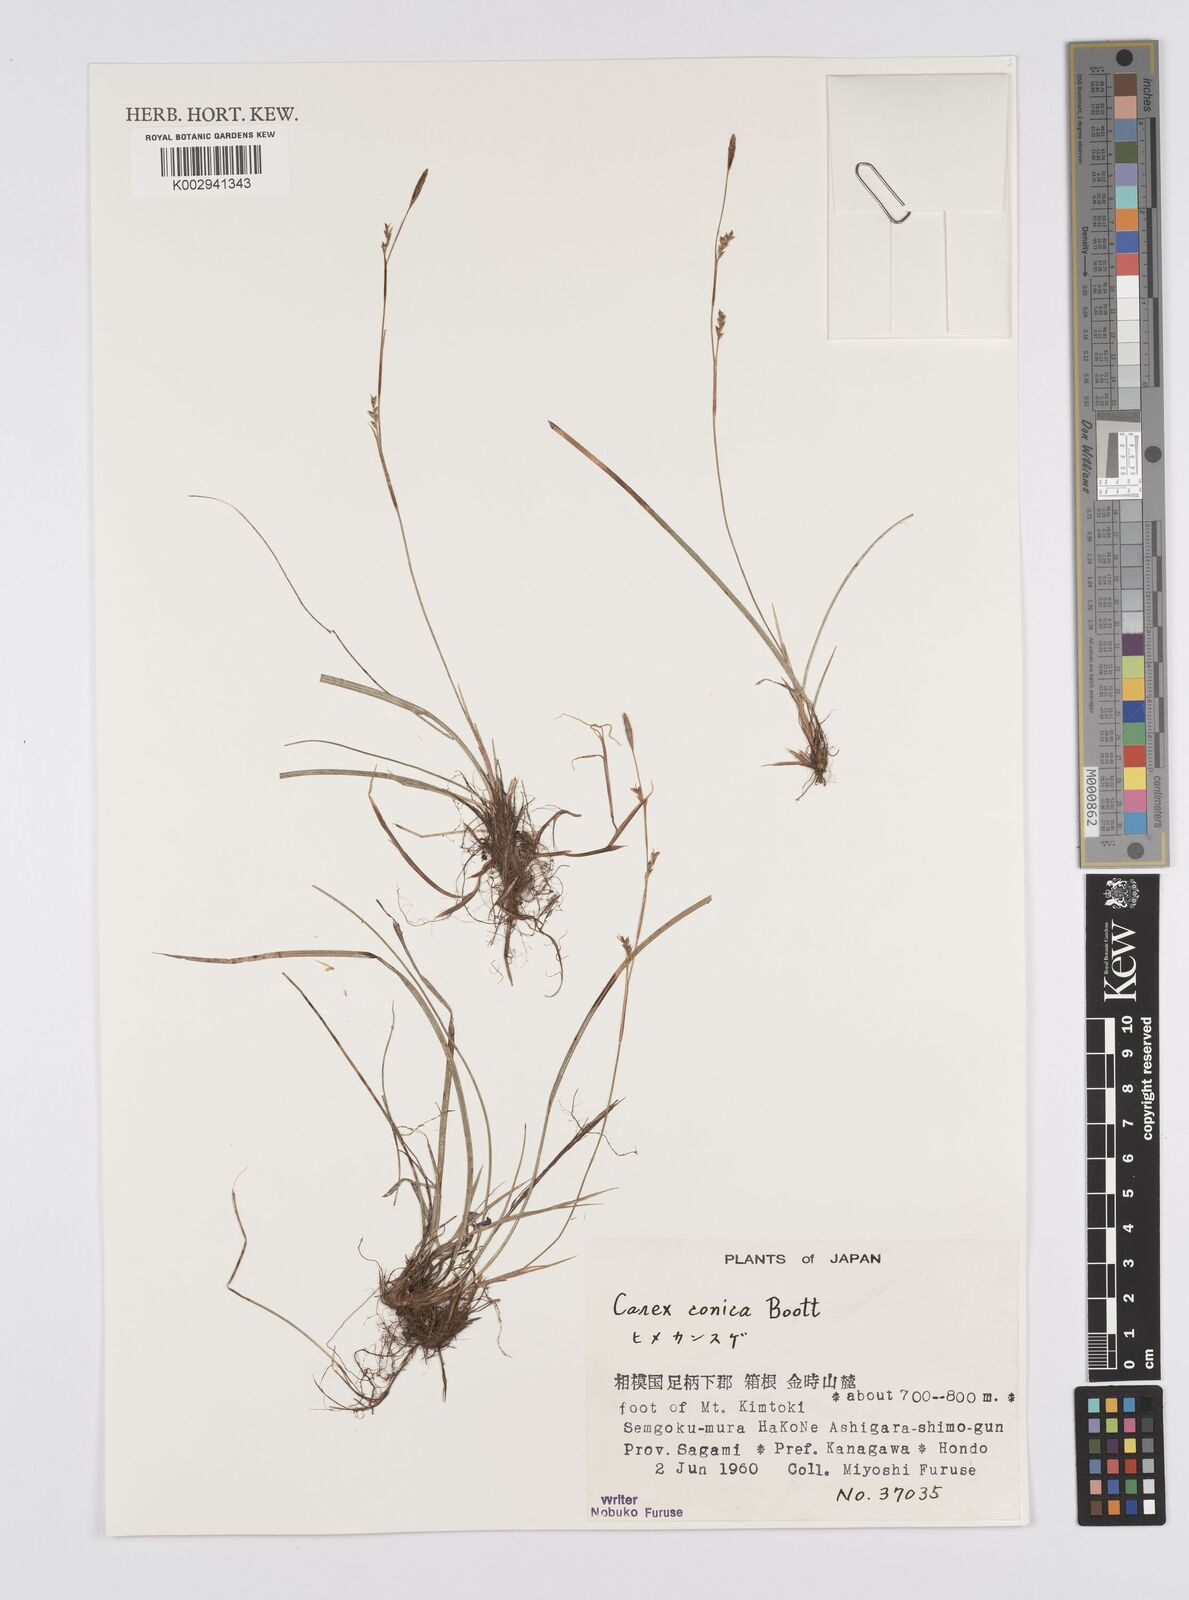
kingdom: Plantae
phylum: Tracheophyta
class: Liliopsida
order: Poales
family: Cyperaceae
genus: Carex
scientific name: Carex conica
